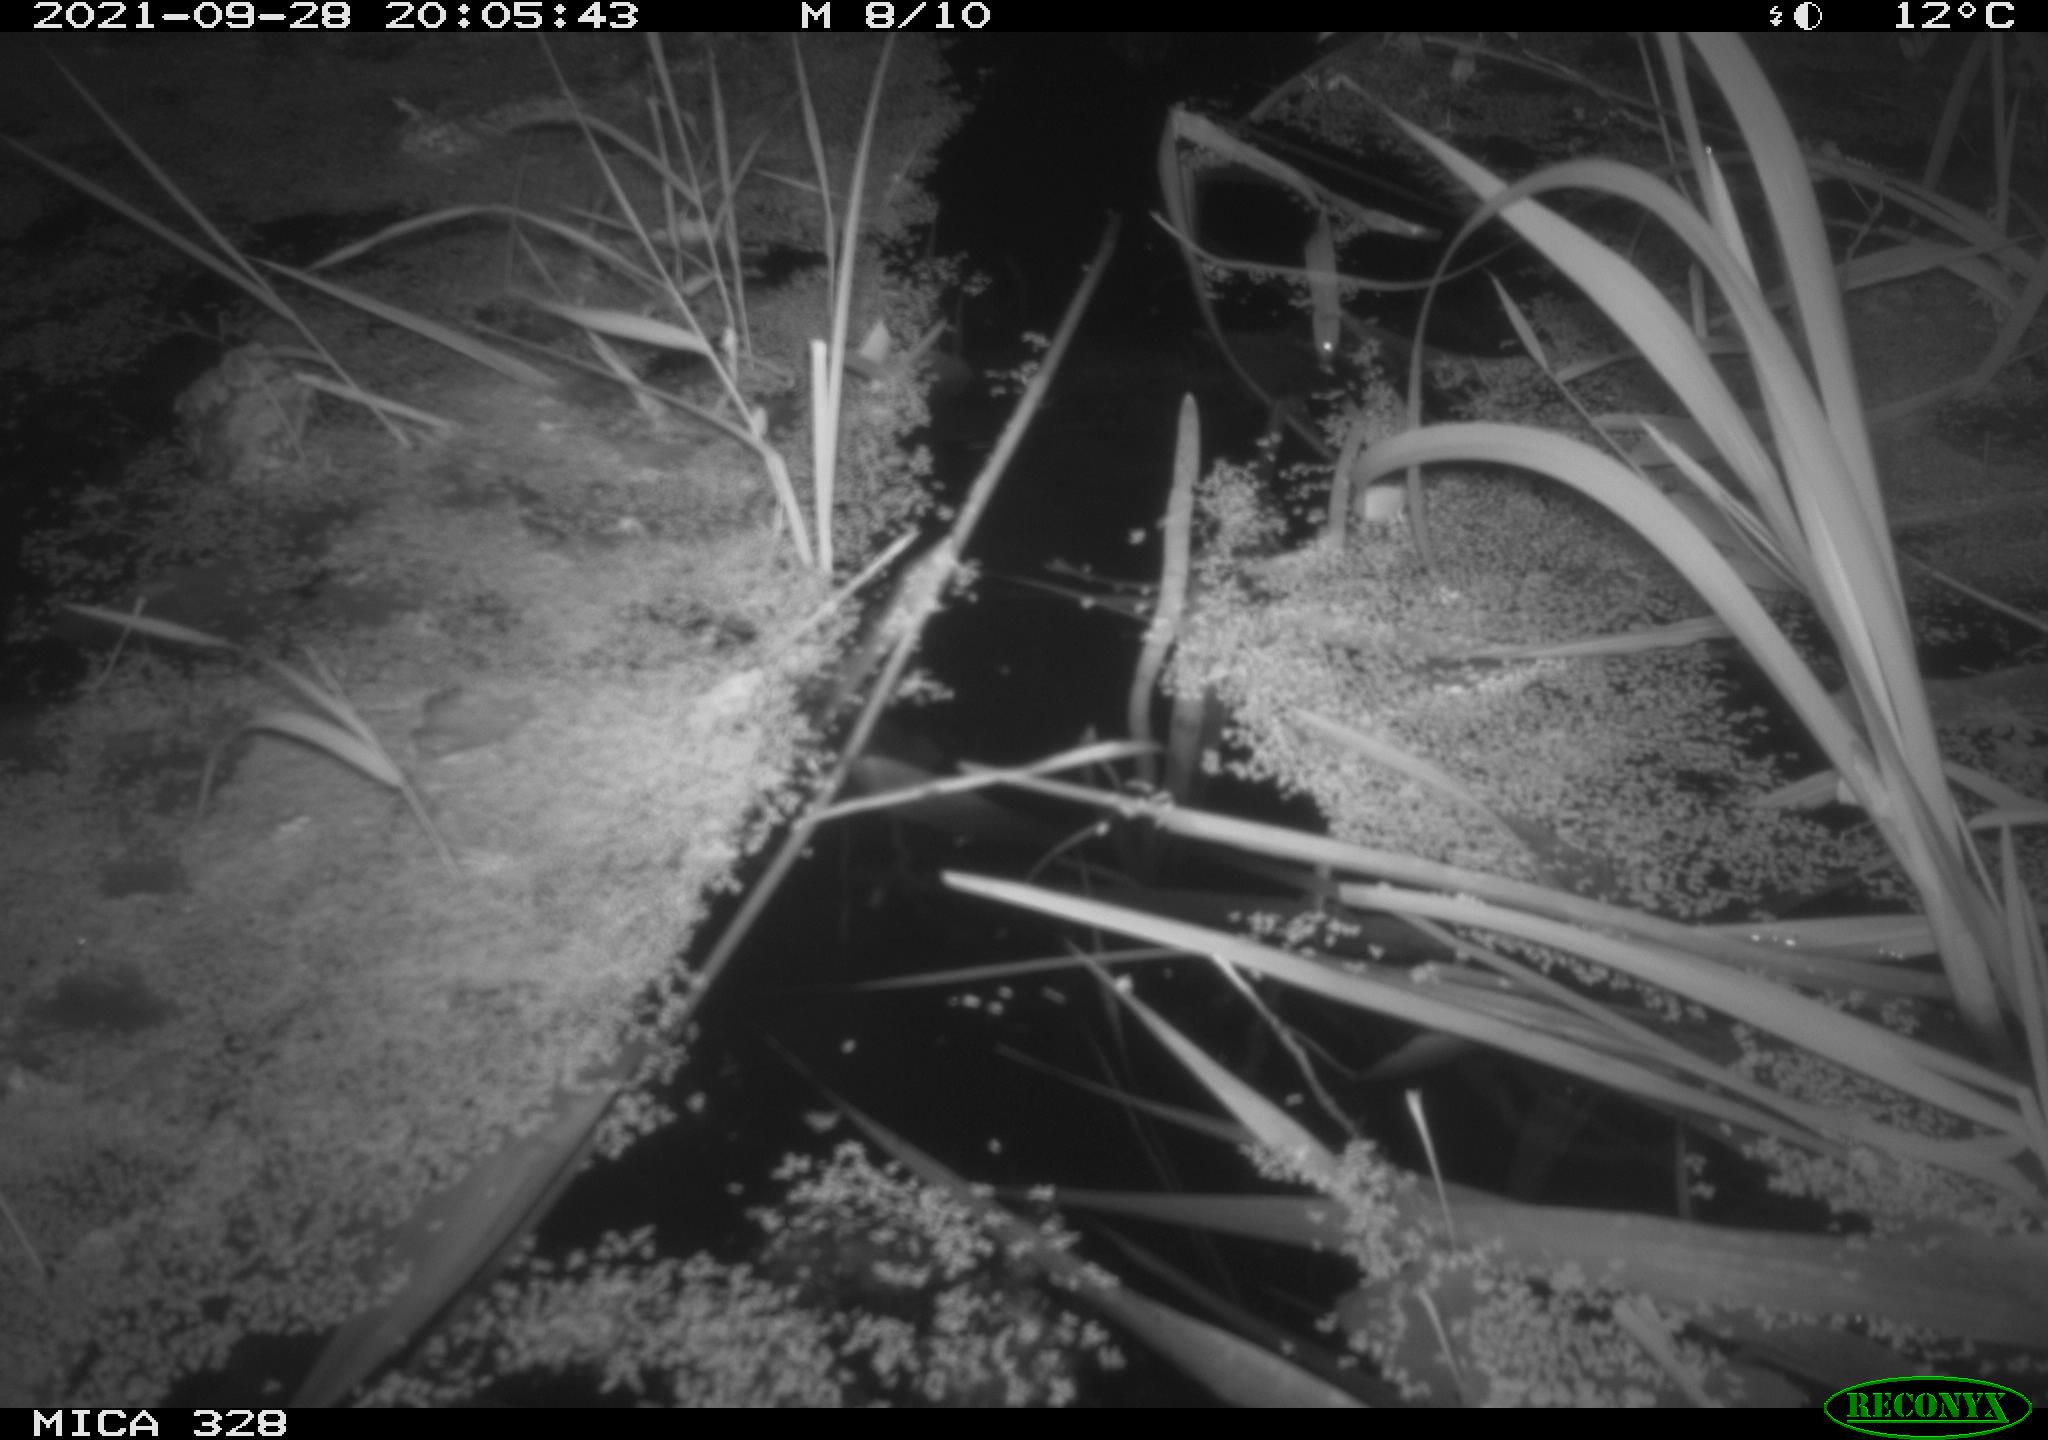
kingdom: Animalia
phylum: Chordata
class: Mammalia
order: Rodentia
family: Cricetidae
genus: Ondatra
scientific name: Ondatra zibethicus
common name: Muskrat
